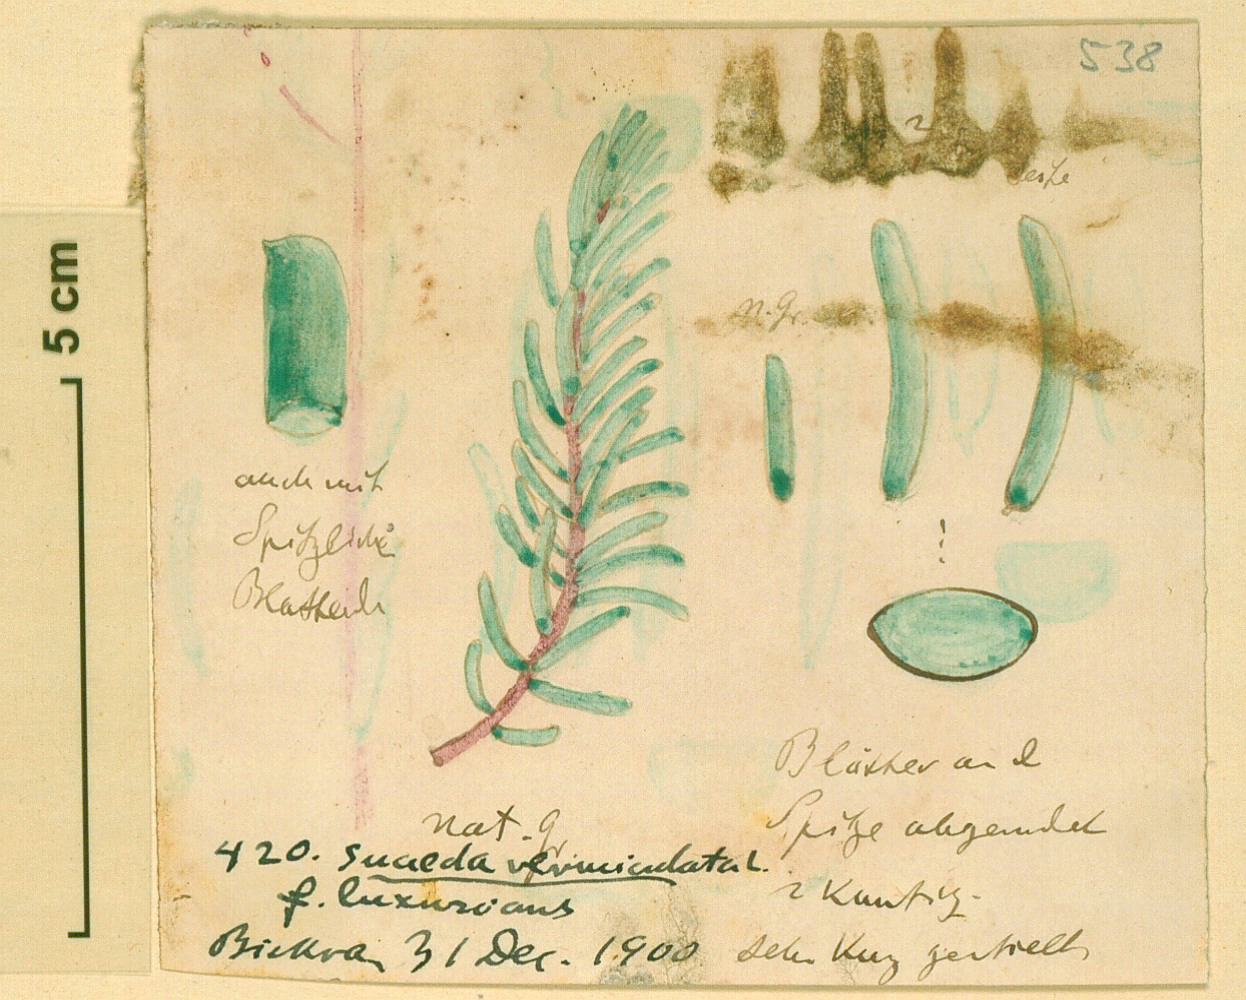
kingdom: Plantae
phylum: Tracheophyta
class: Magnoliopsida
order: Caryophyllales
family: Amaranthaceae
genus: Suaeda
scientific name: Suaeda vermiculata
